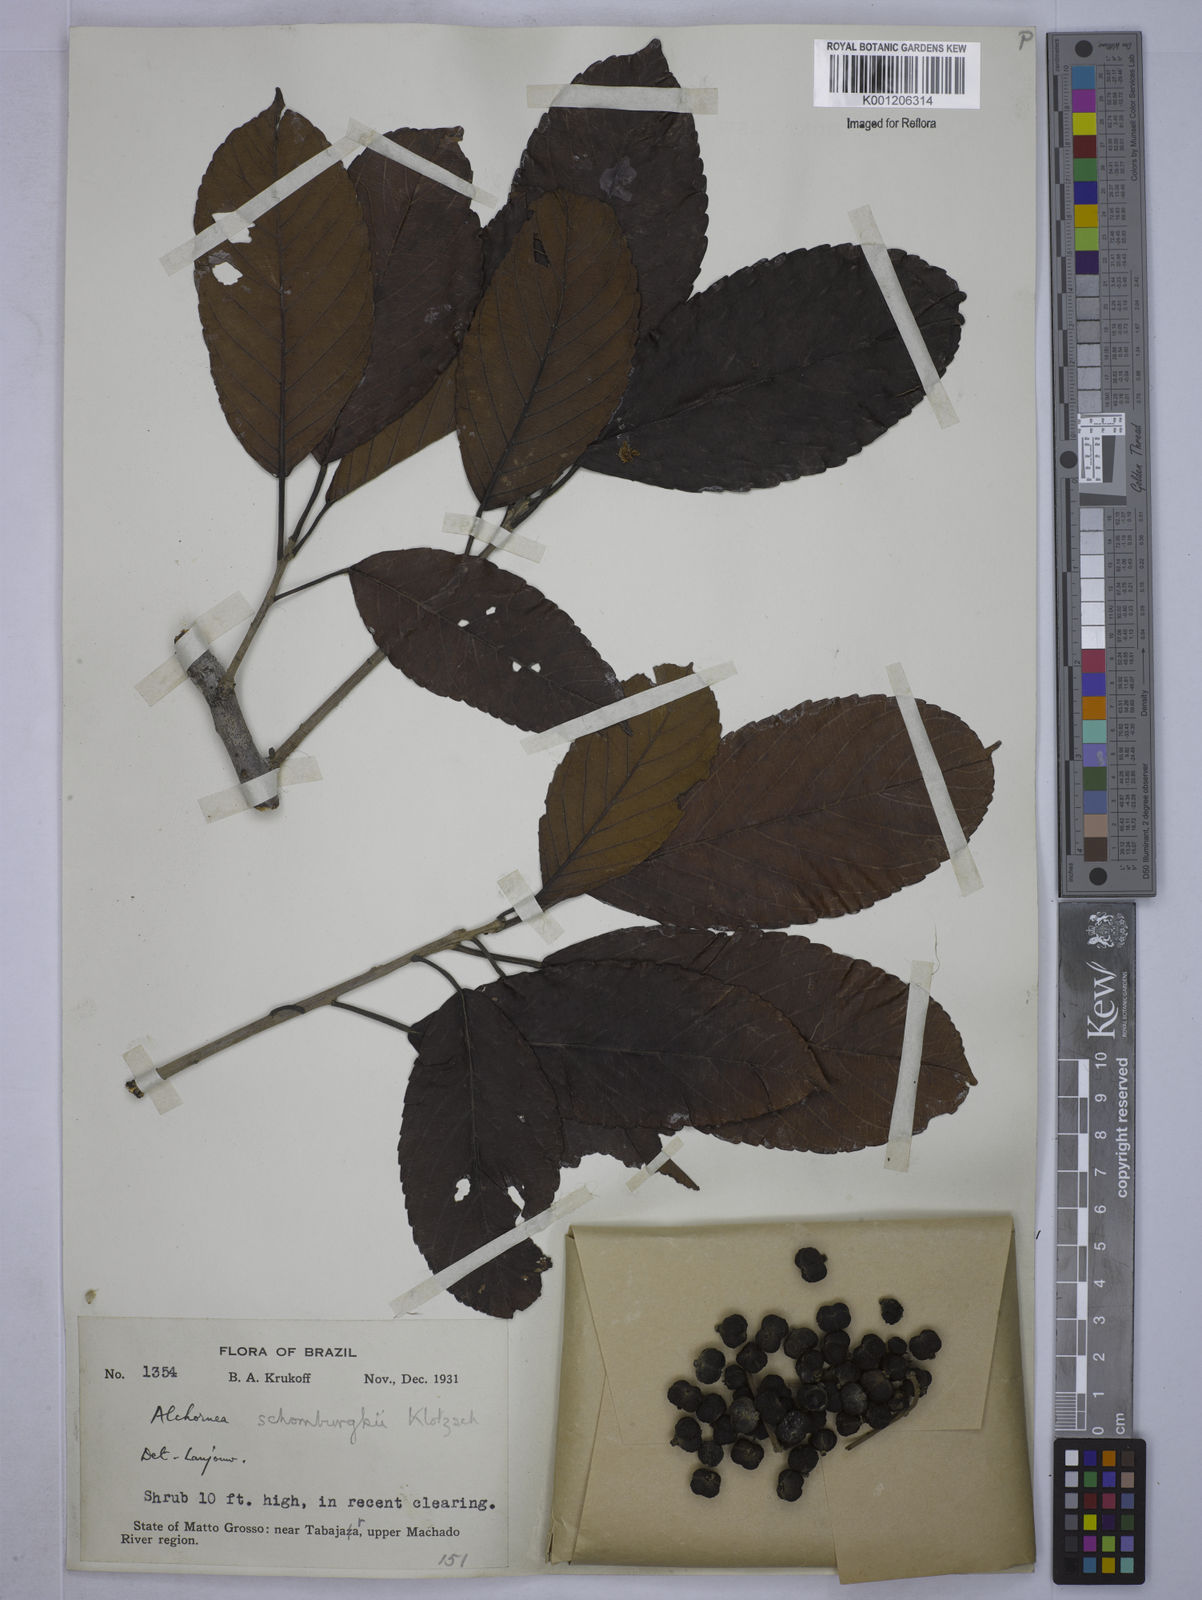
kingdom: Plantae
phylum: Tracheophyta
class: Magnoliopsida
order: Malpighiales
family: Euphorbiaceae
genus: Alchornea
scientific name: Alchornea discolor
